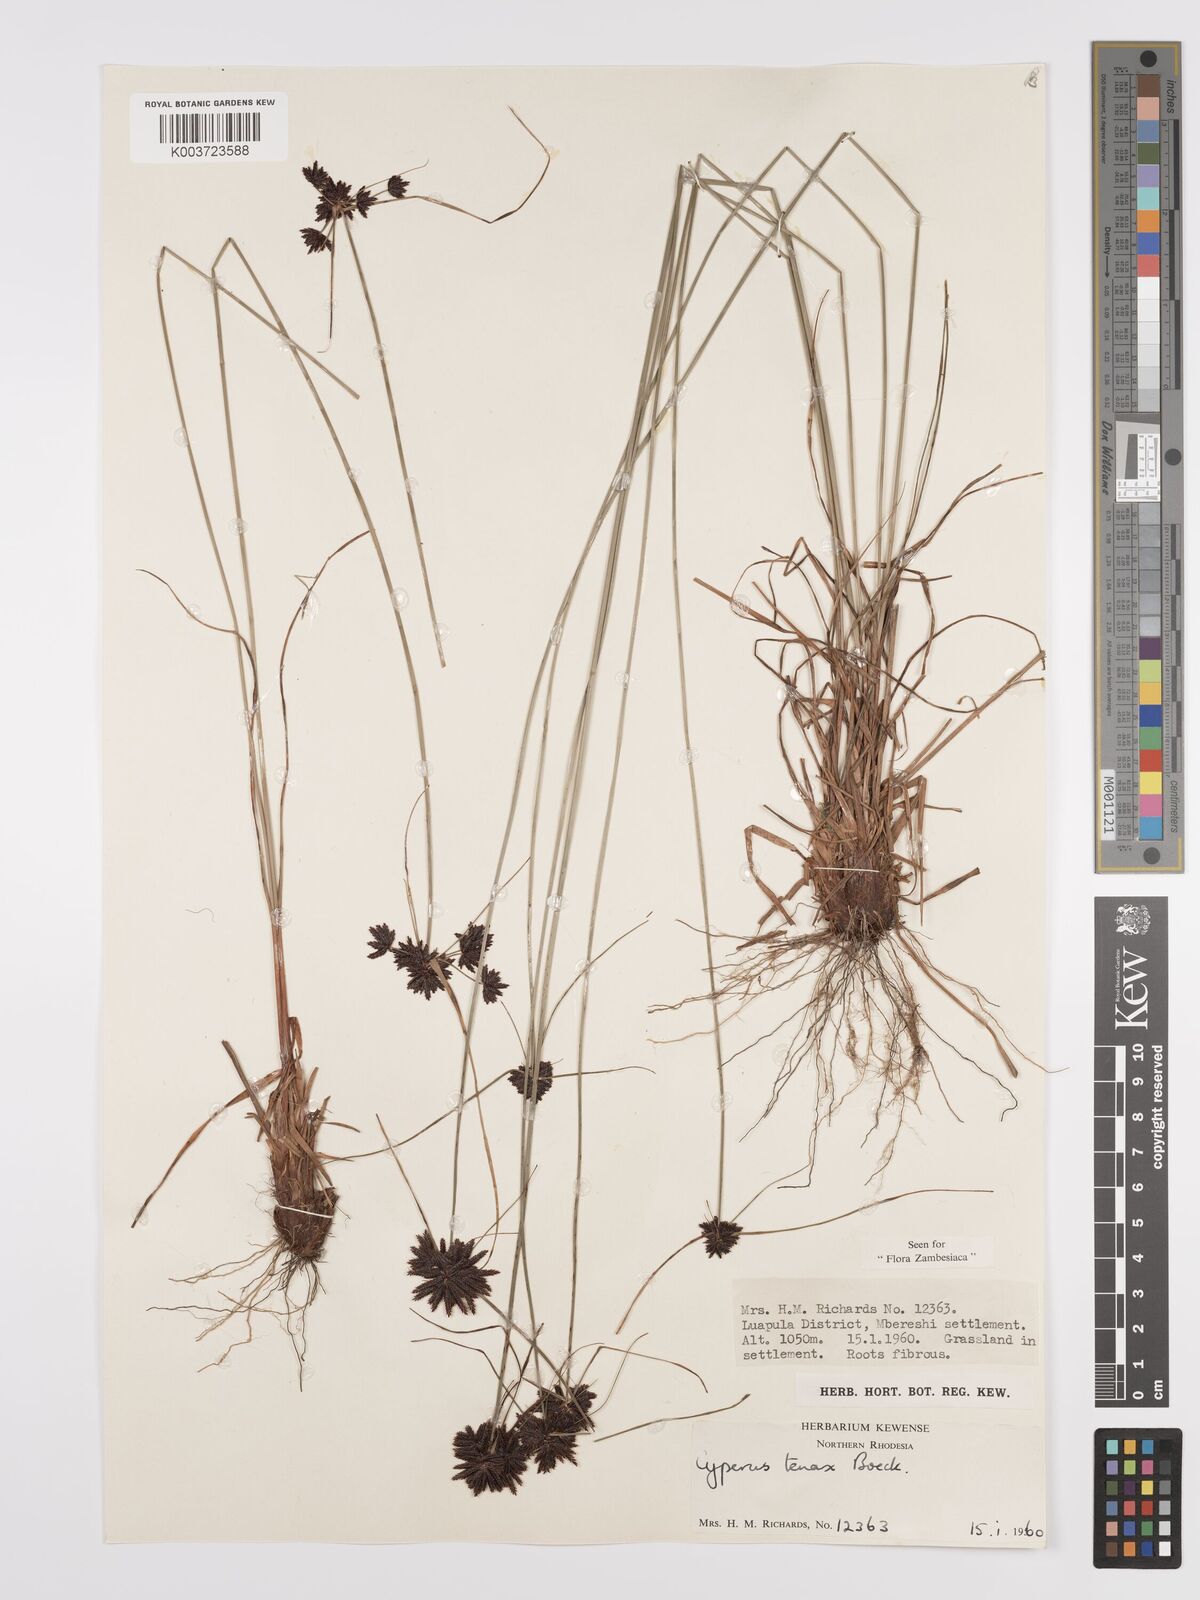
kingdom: Plantae
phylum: Tracheophyta
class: Liliopsida
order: Poales
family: Cyperaceae
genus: Cyperus
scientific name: Cyperus tenax
